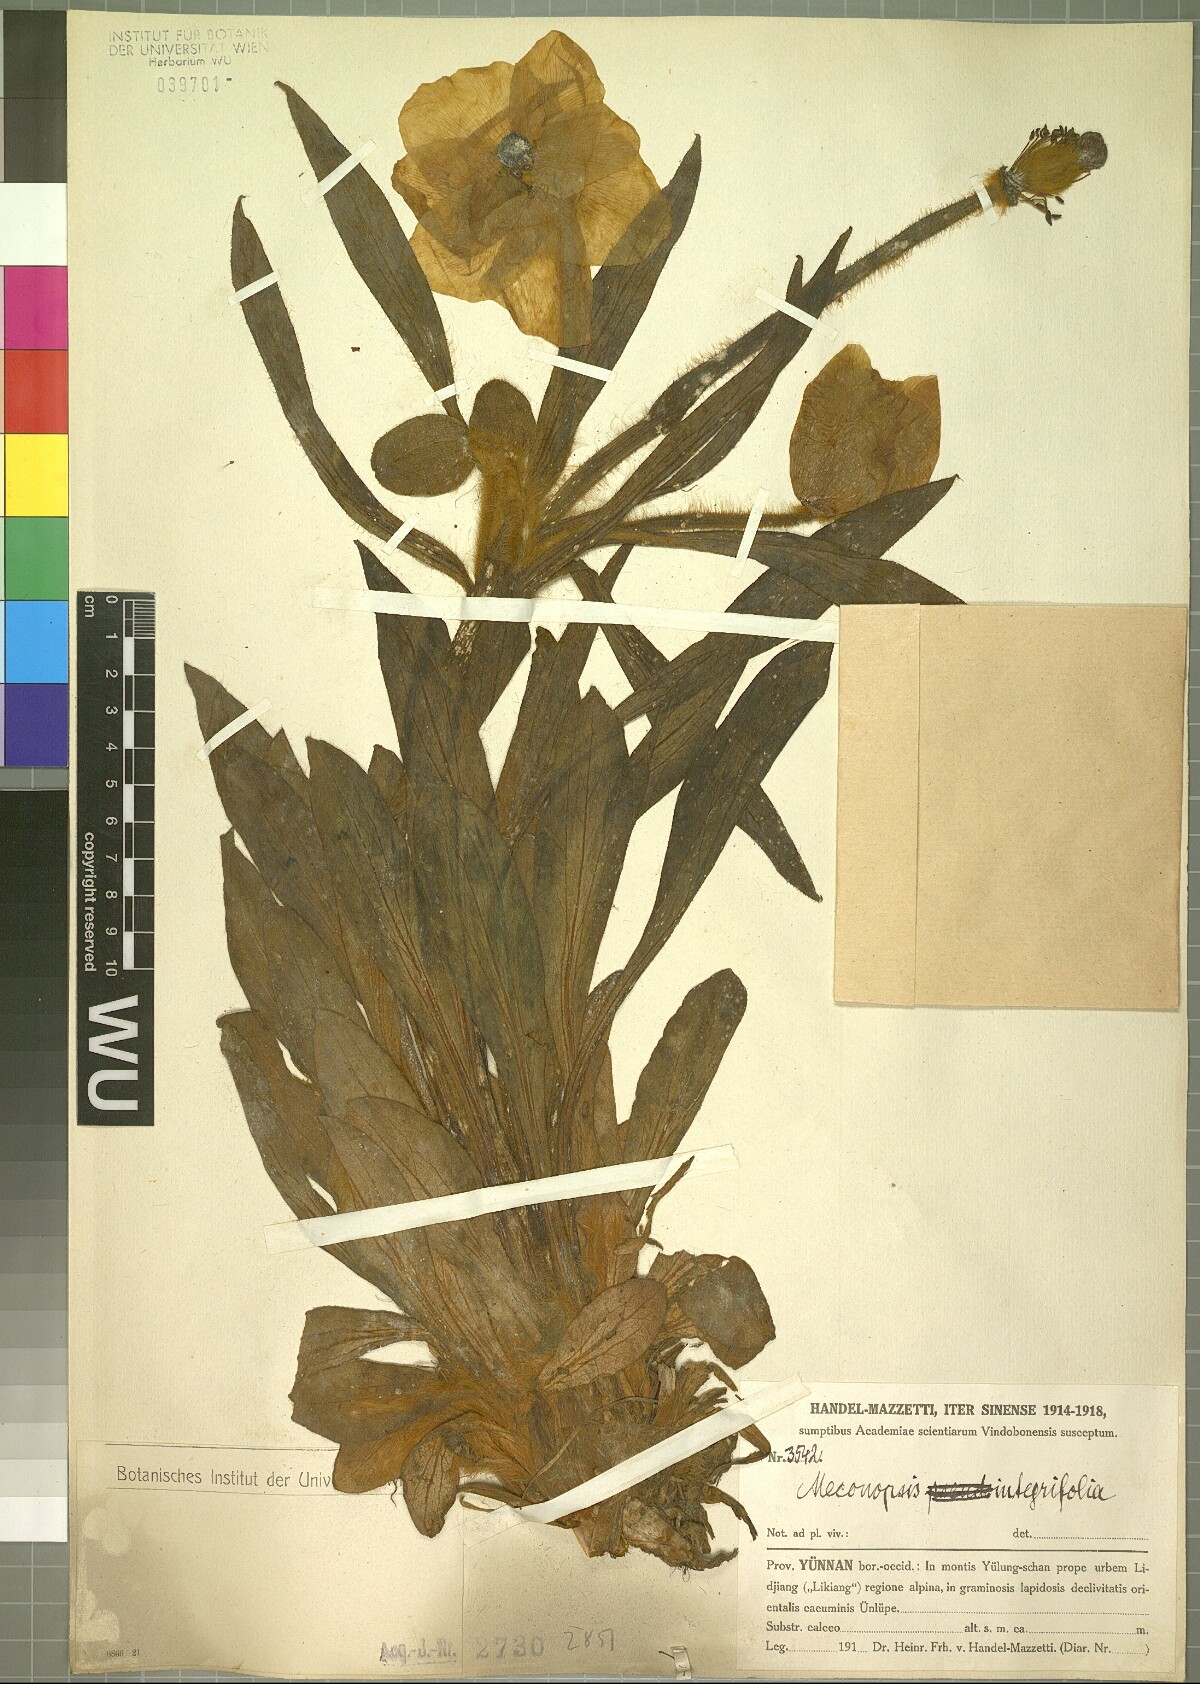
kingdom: Plantae
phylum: Tracheophyta
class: Magnoliopsida
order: Ranunculales
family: Papaveraceae
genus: Meconopsis
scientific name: Meconopsis integrifolia
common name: Yellow poppywort
